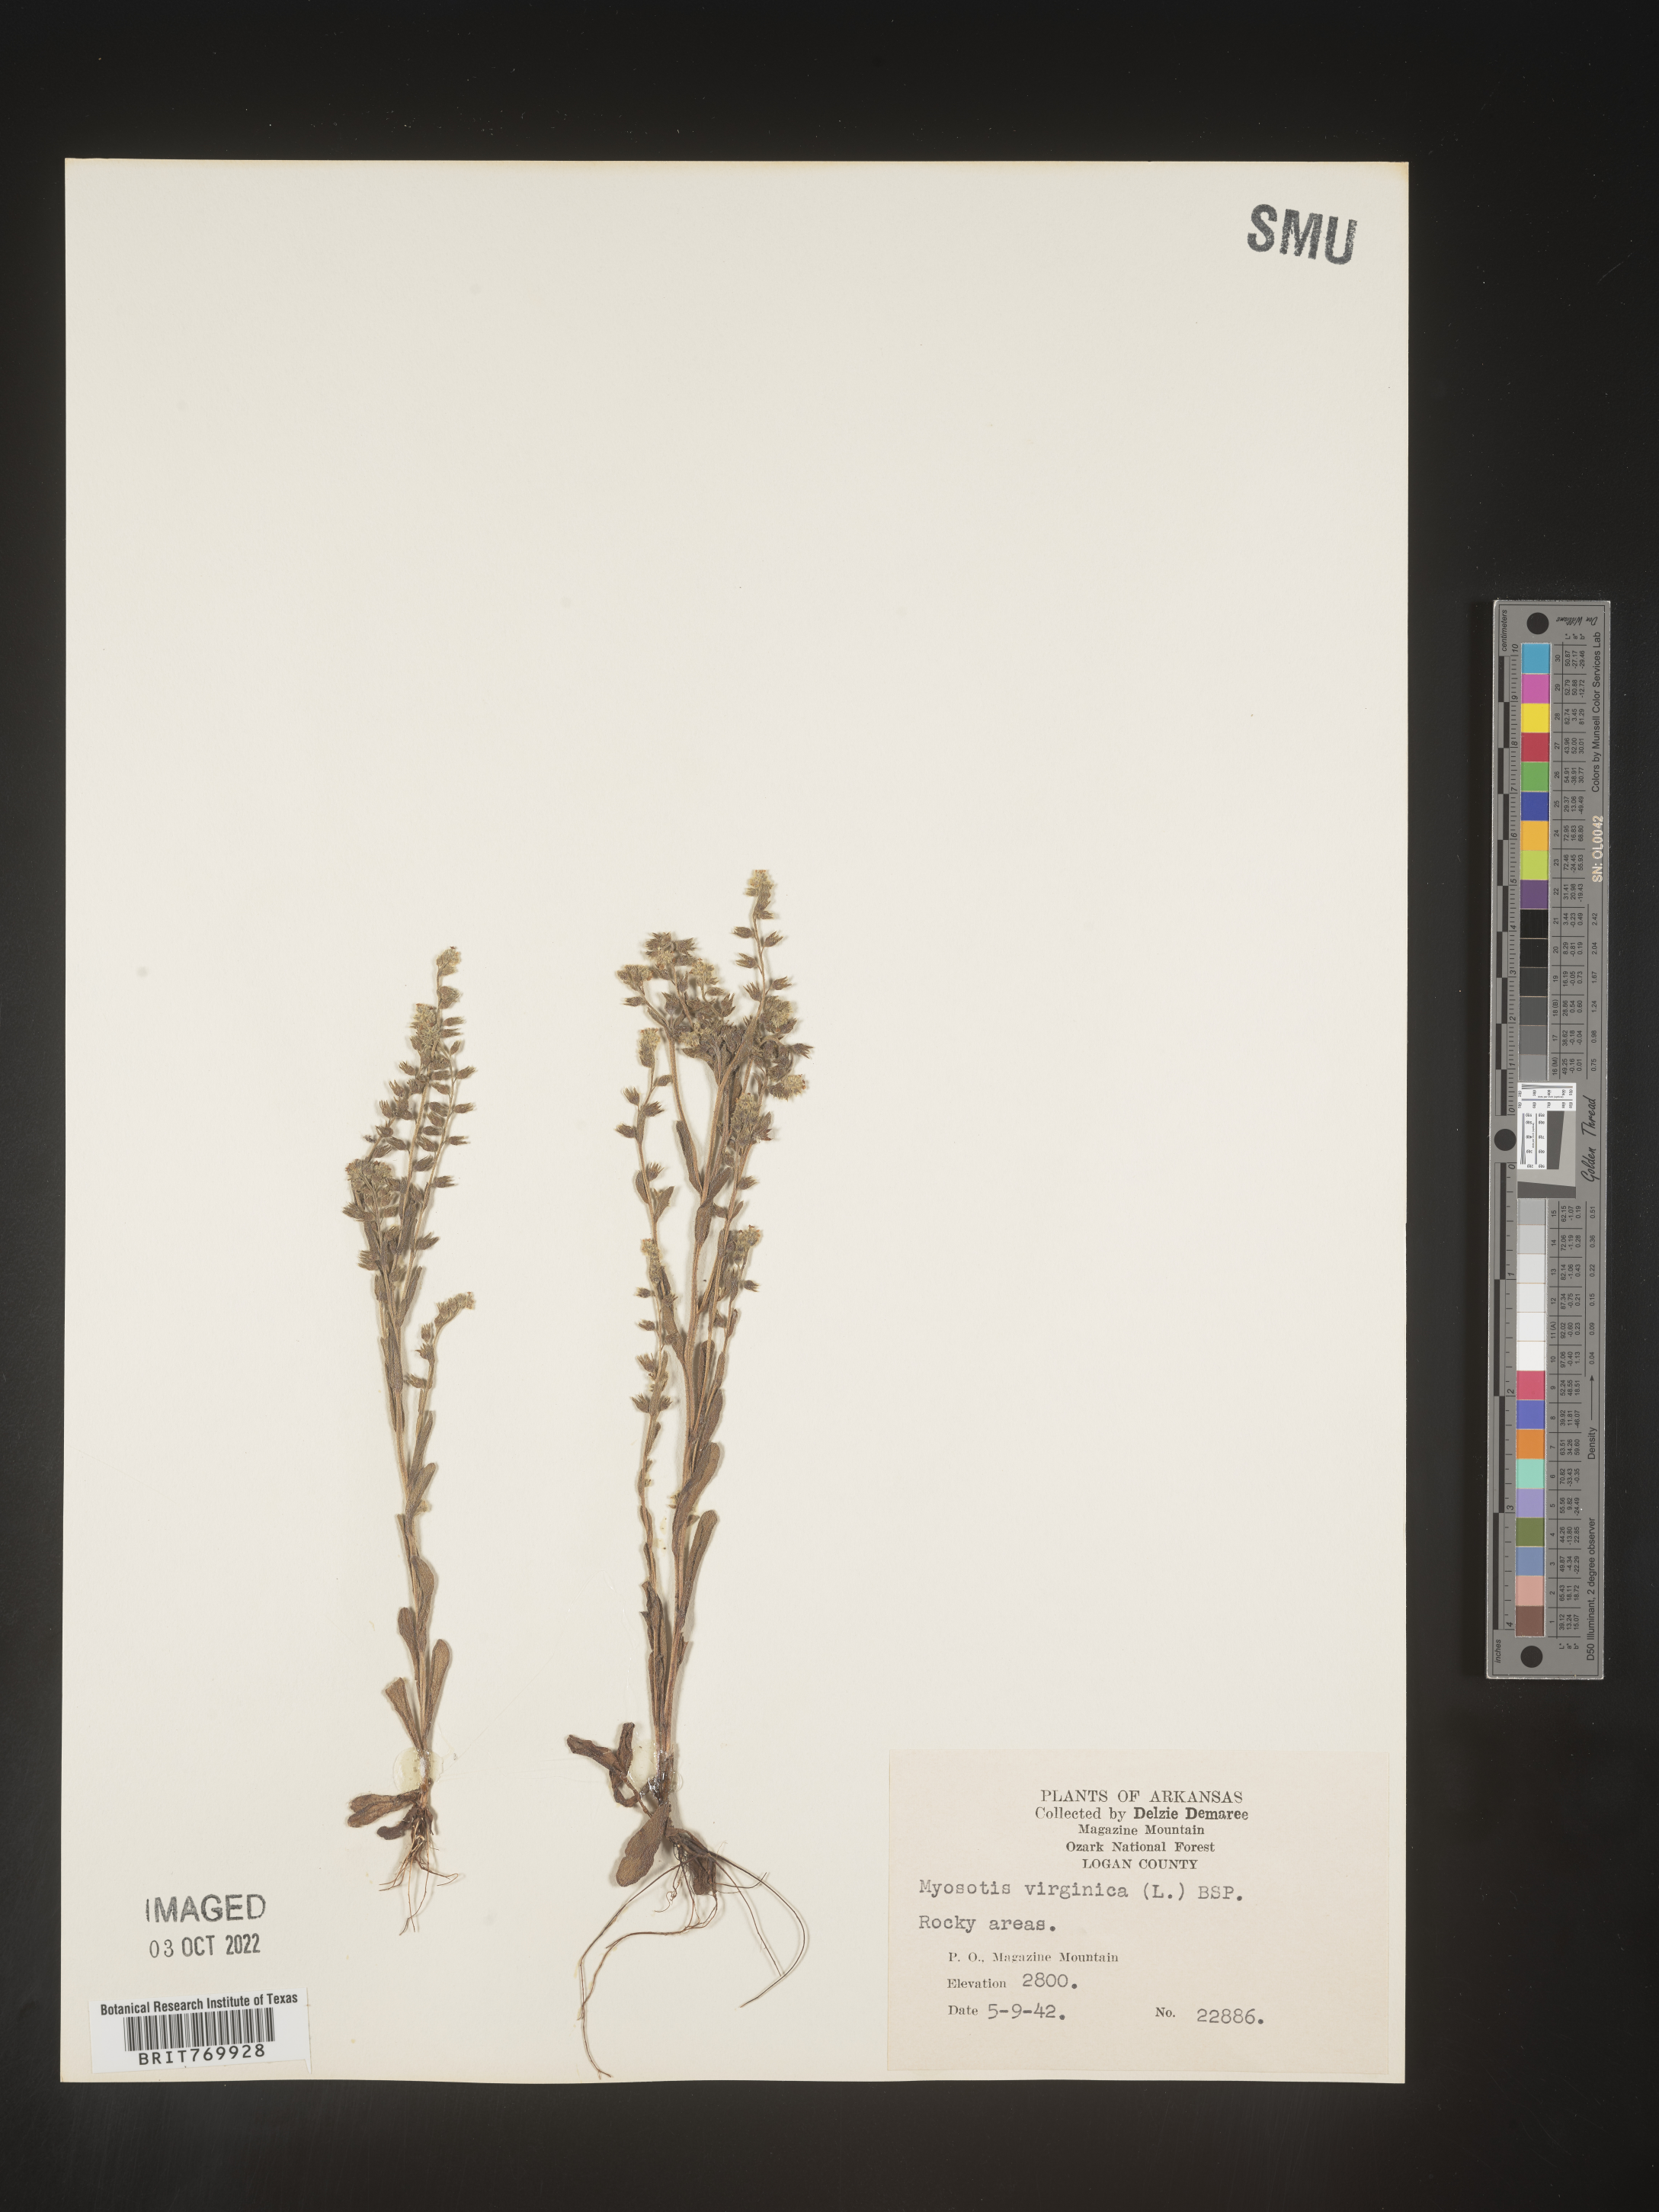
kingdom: Plantae
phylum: Tracheophyta
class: Magnoliopsida
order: Boraginales
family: Boraginaceae
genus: Myosotis
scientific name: Myosotis verna
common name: Early forget-me-not
